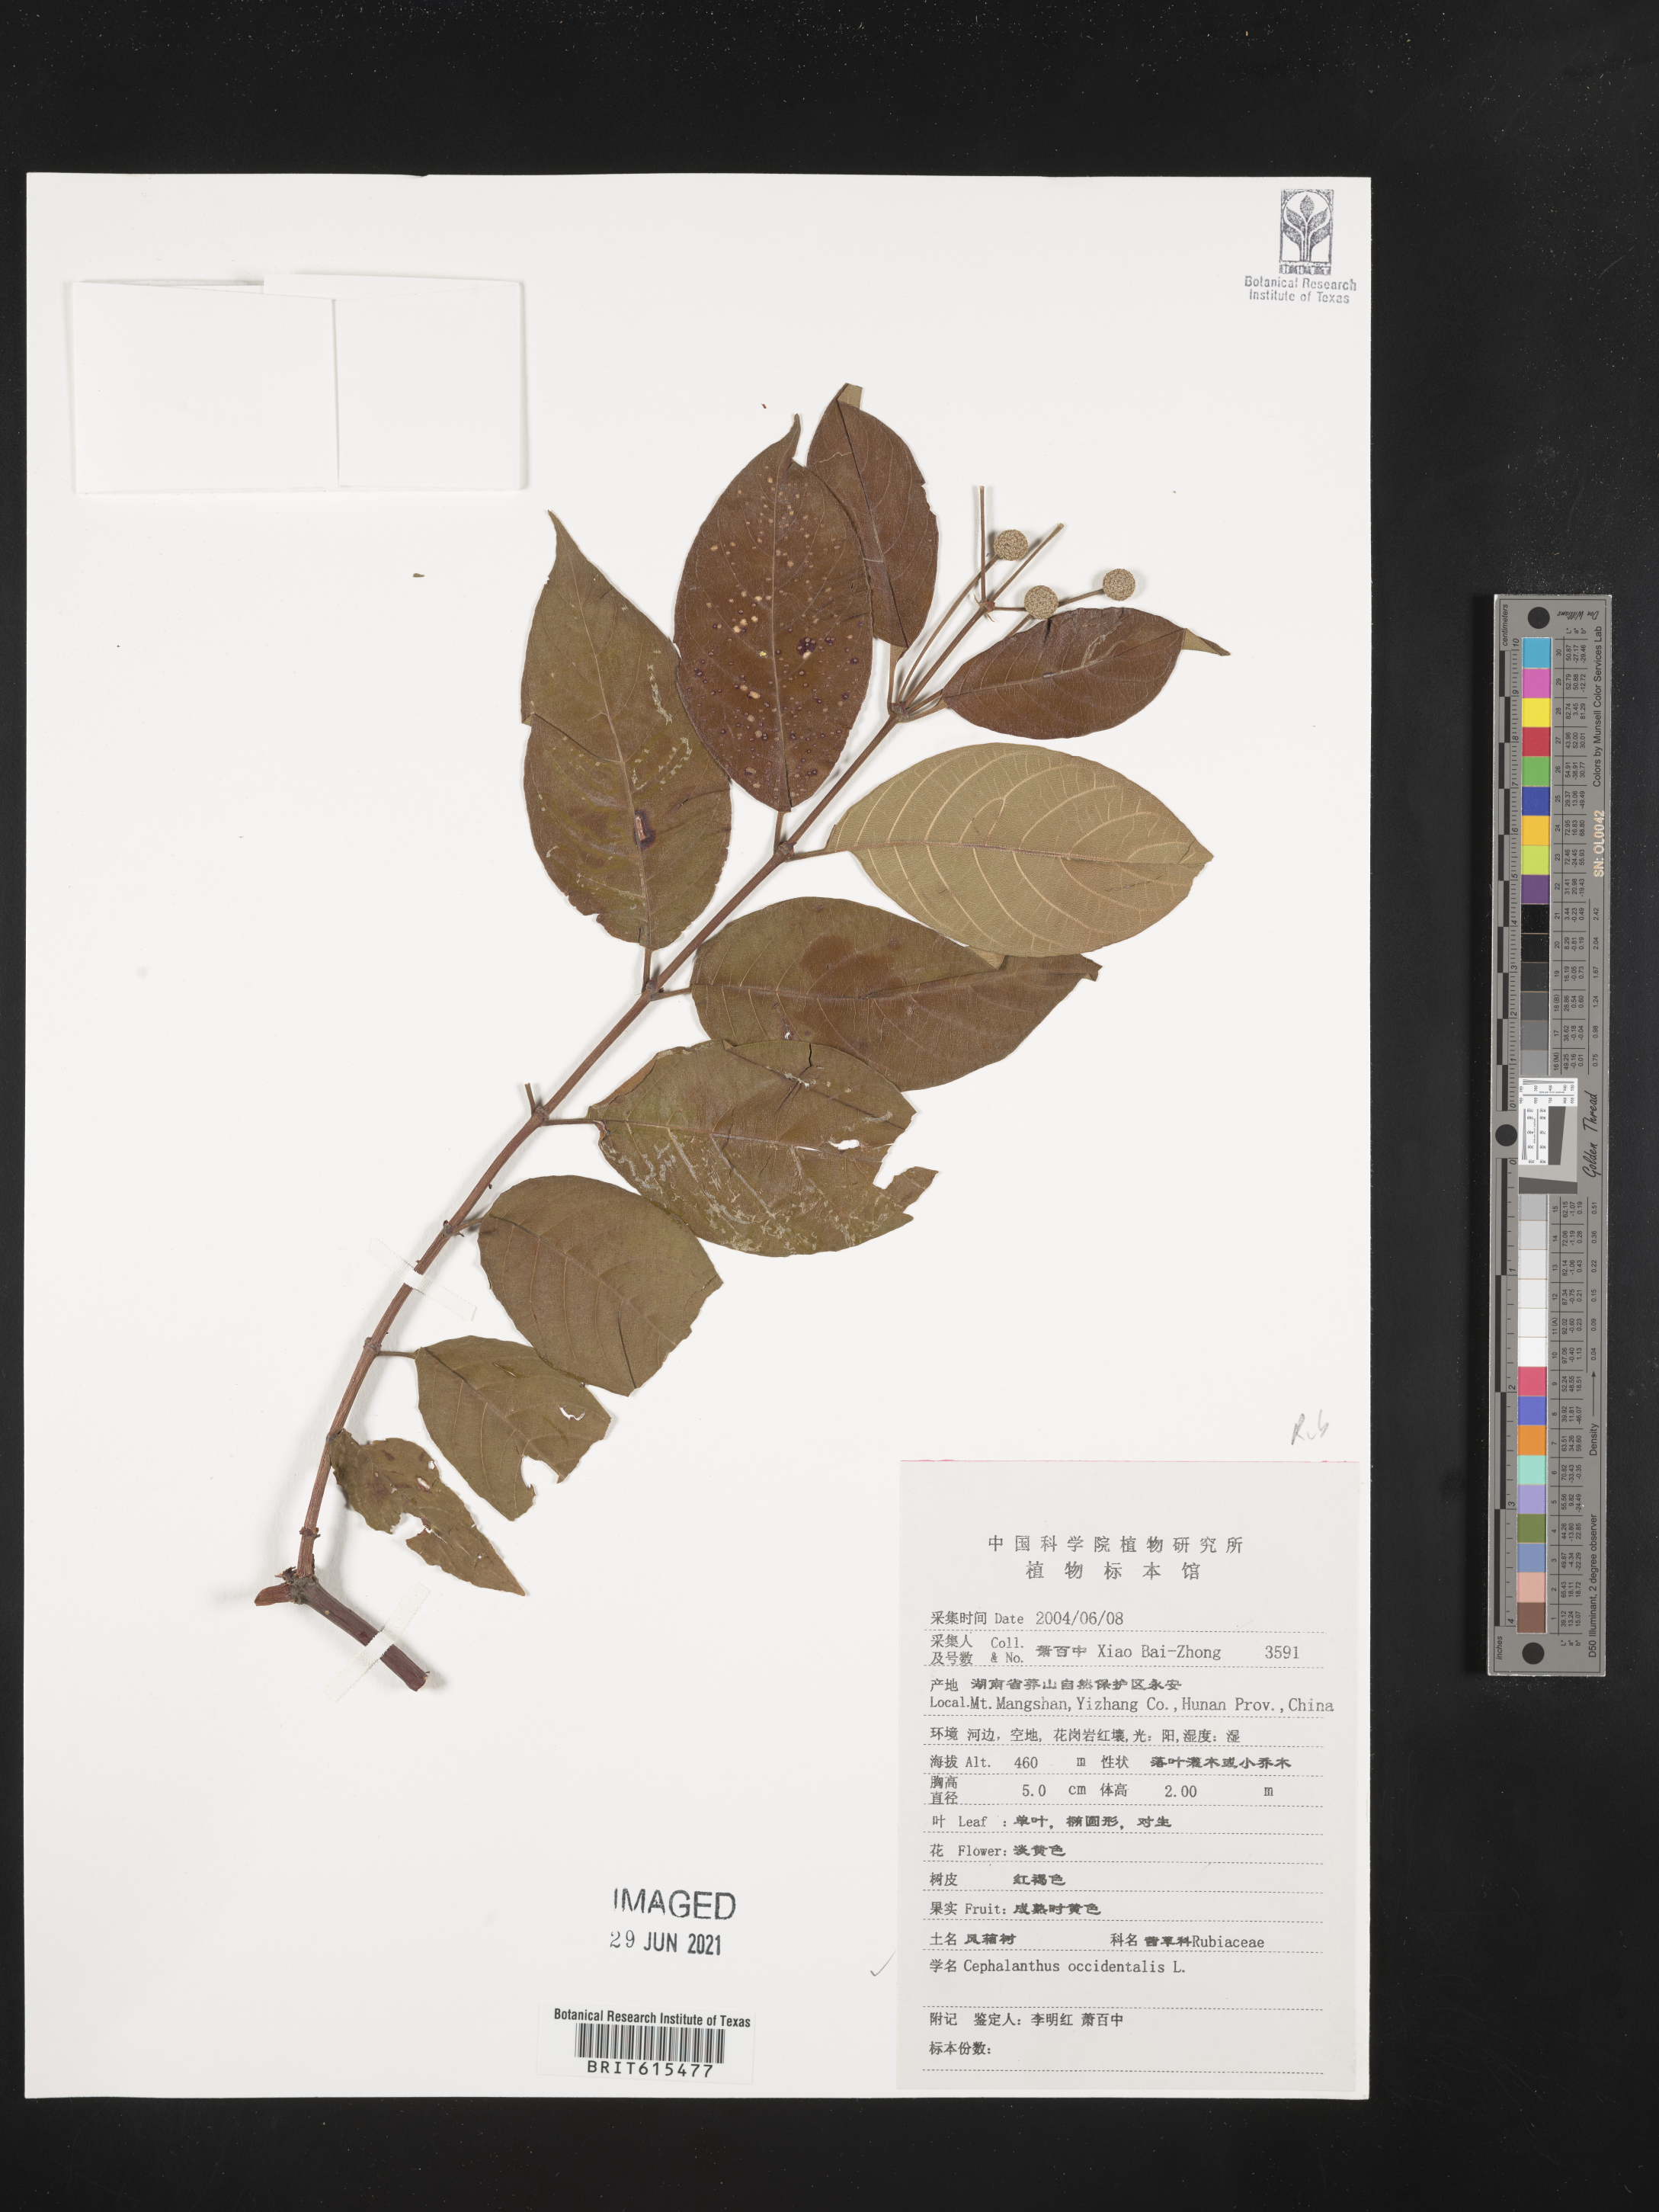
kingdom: Plantae
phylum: Tracheophyta
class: Magnoliopsida
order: Gentianales
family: Rubiaceae
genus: Cephalanthus
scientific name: Cephalanthus occidentalis
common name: Button-willow
